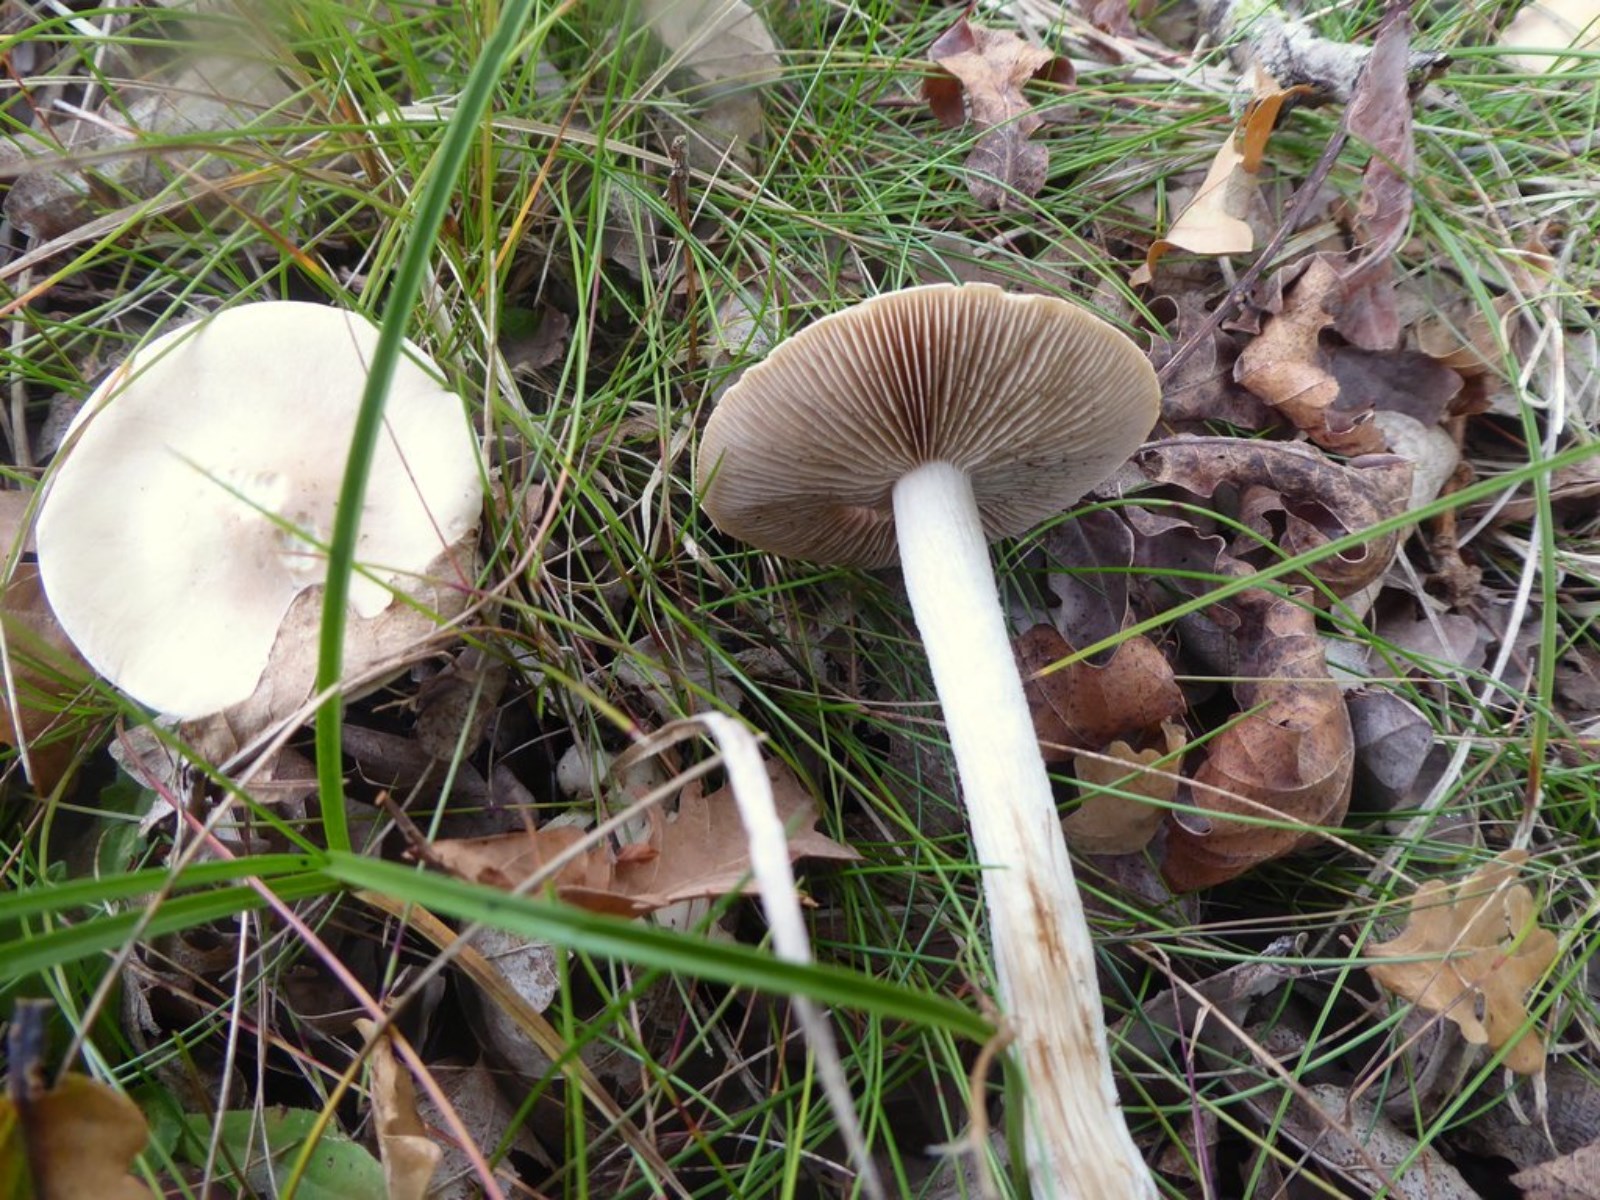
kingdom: Fungi
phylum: Basidiomycota
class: Agaricomycetes
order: Agaricales
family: Hymenogastraceae
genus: Hebeloma
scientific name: Hebeloma
